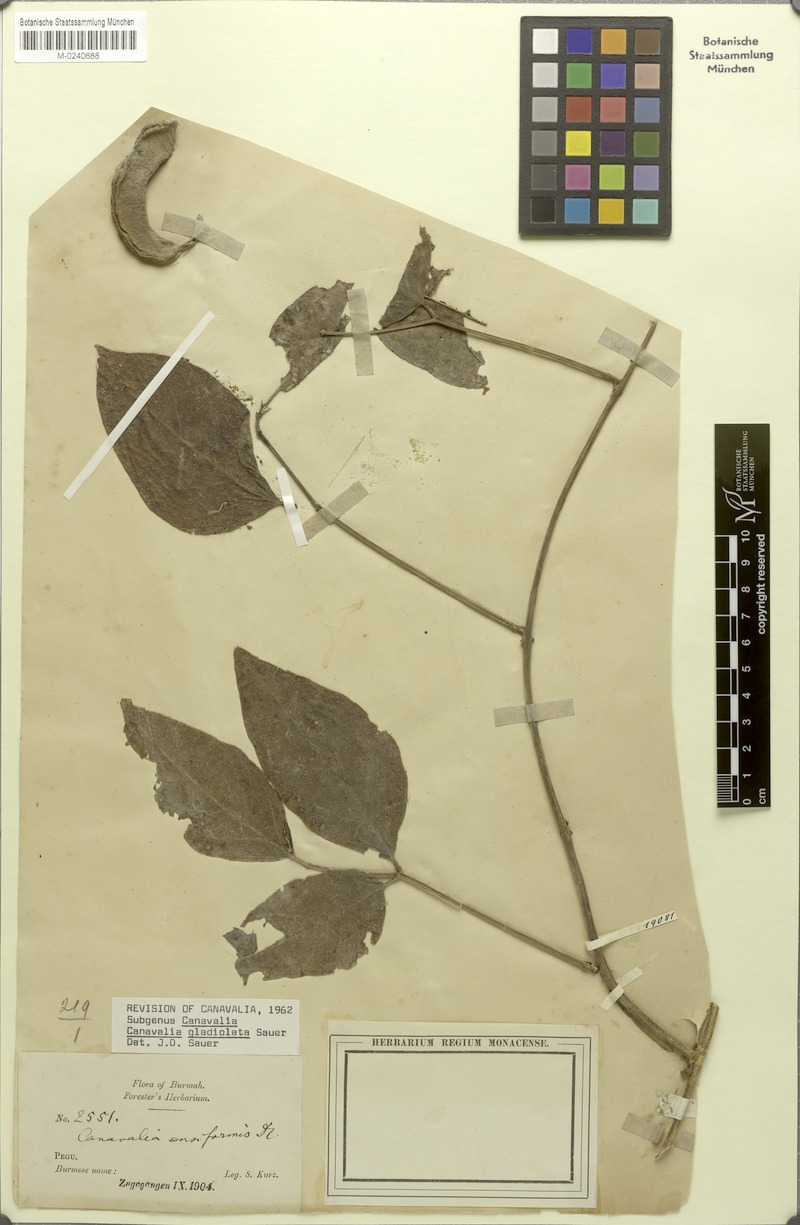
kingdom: Plantae
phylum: Tracheophyta
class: Magnoliopsida
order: Fabales
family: Fabaceae
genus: Canavalia
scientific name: Canavalia gladiata
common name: Scimitar-bean
